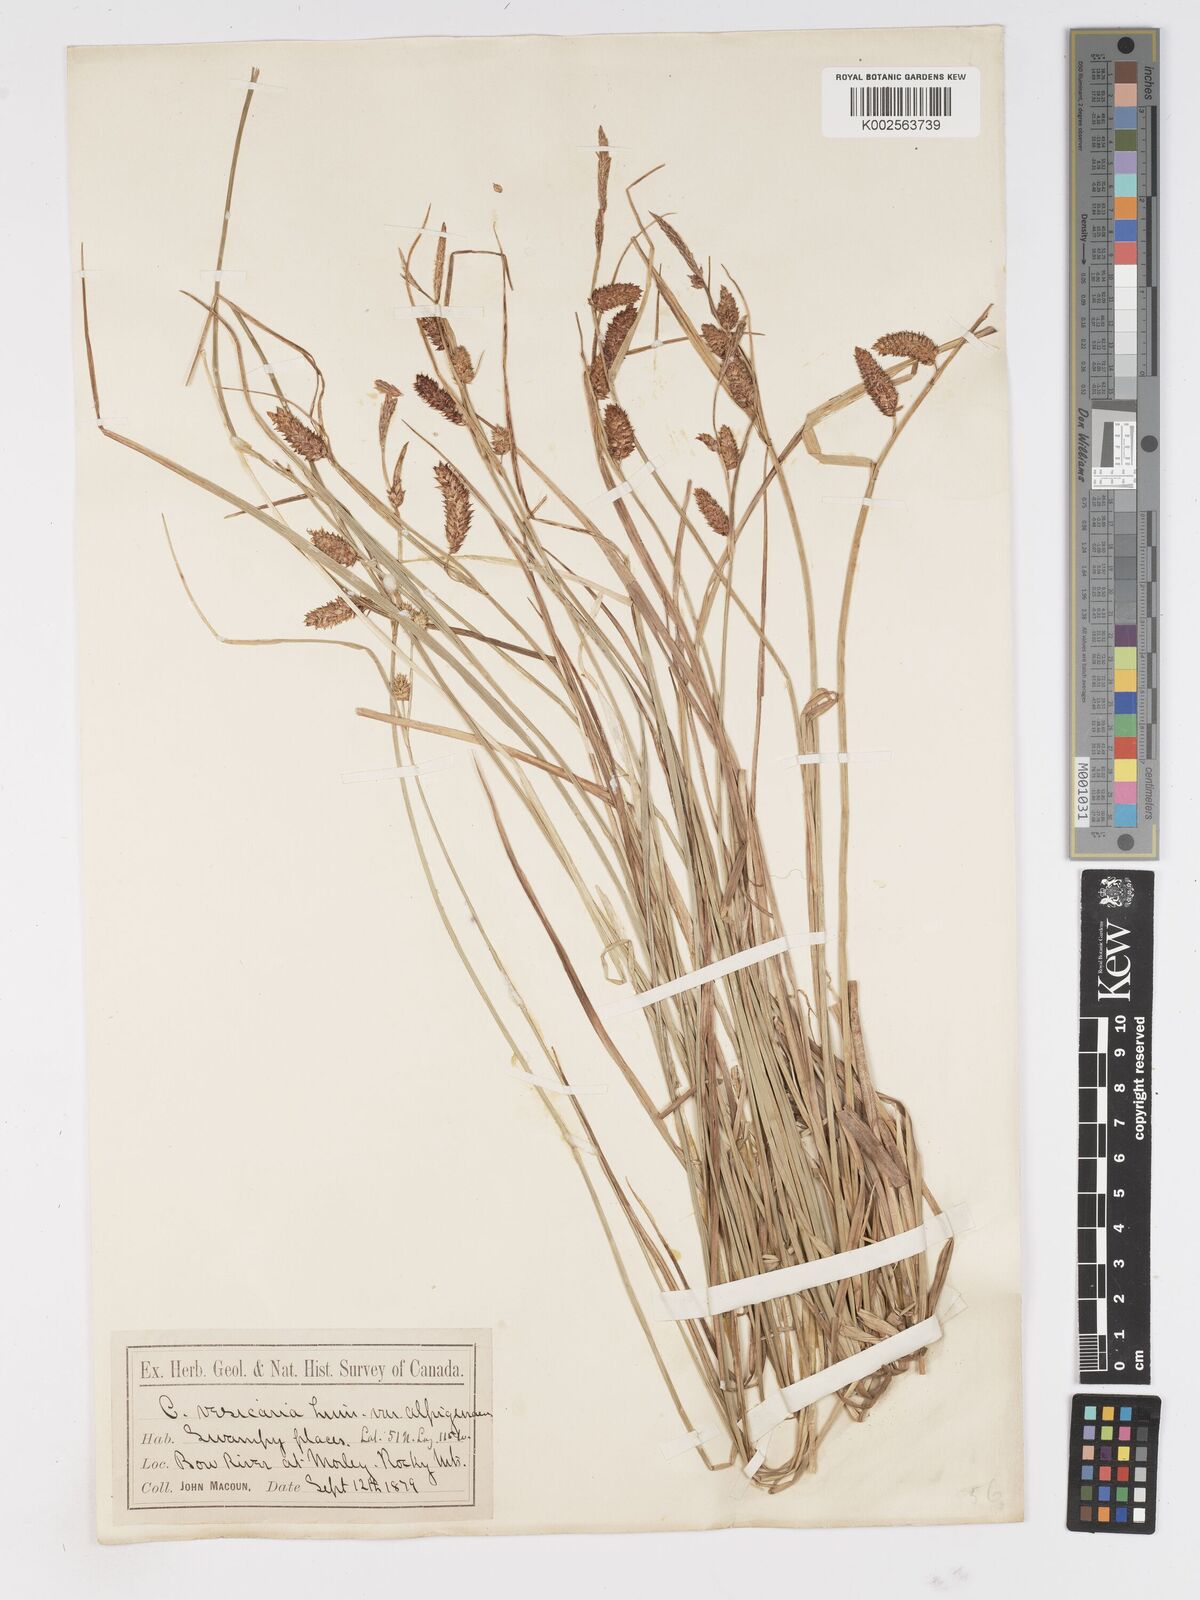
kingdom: Plantae
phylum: Tracheophyta
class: Liliopsida
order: Poales
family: Cyperaceae
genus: Carex
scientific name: Carex vesicaria
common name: Bladder-sedge
